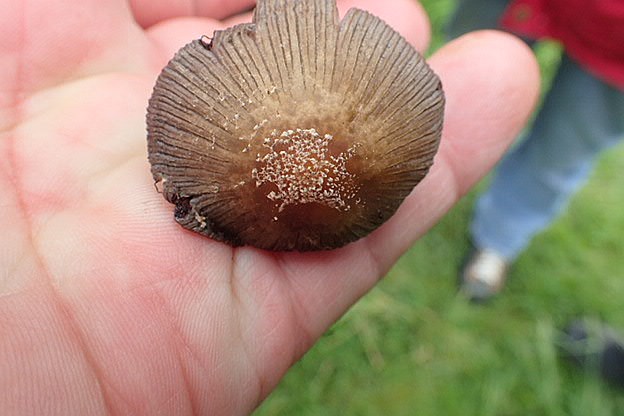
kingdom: Fungi
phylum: Basidiomycota
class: Agaricomycetes
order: Agaricales
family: Psathyrellaceae
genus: Coprinellus
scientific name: Coprinellus
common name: blækhat
